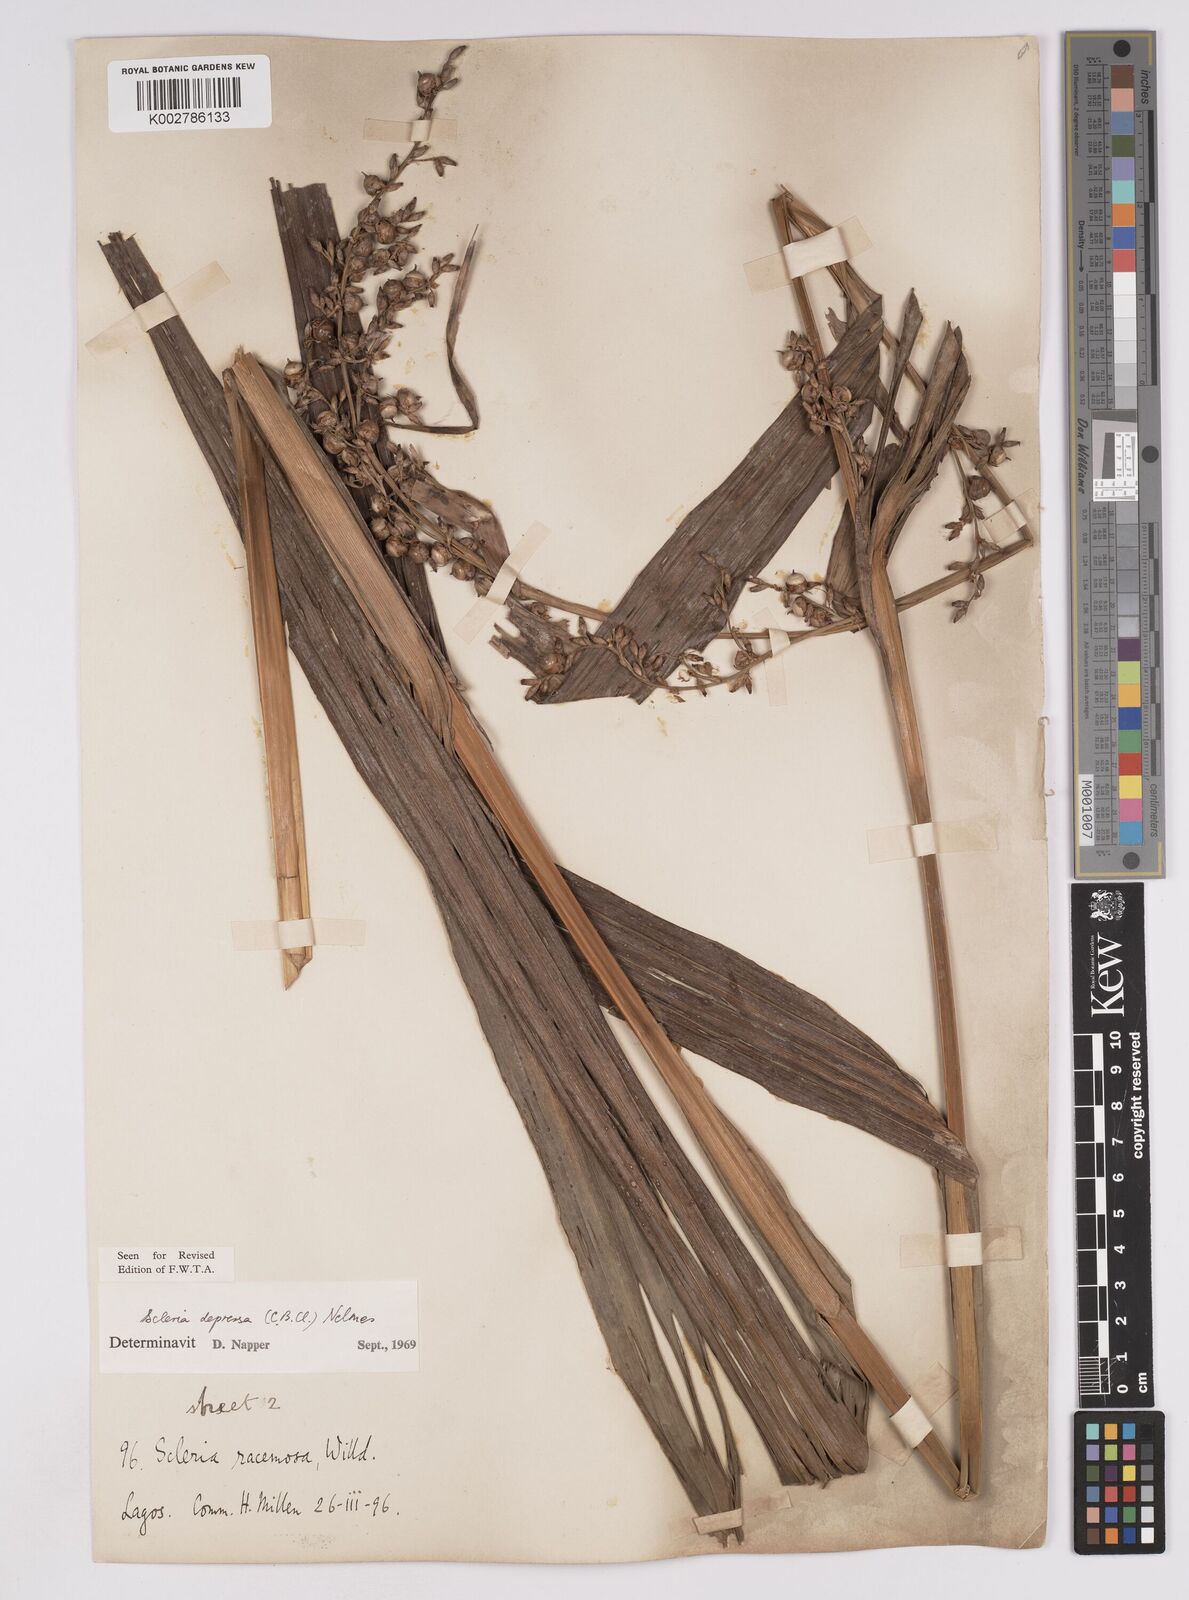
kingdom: Plantae
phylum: Tracheophyta
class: Liliopsida
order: Poales
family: Cyperaceae
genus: Scleria
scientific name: Scleria depressa
